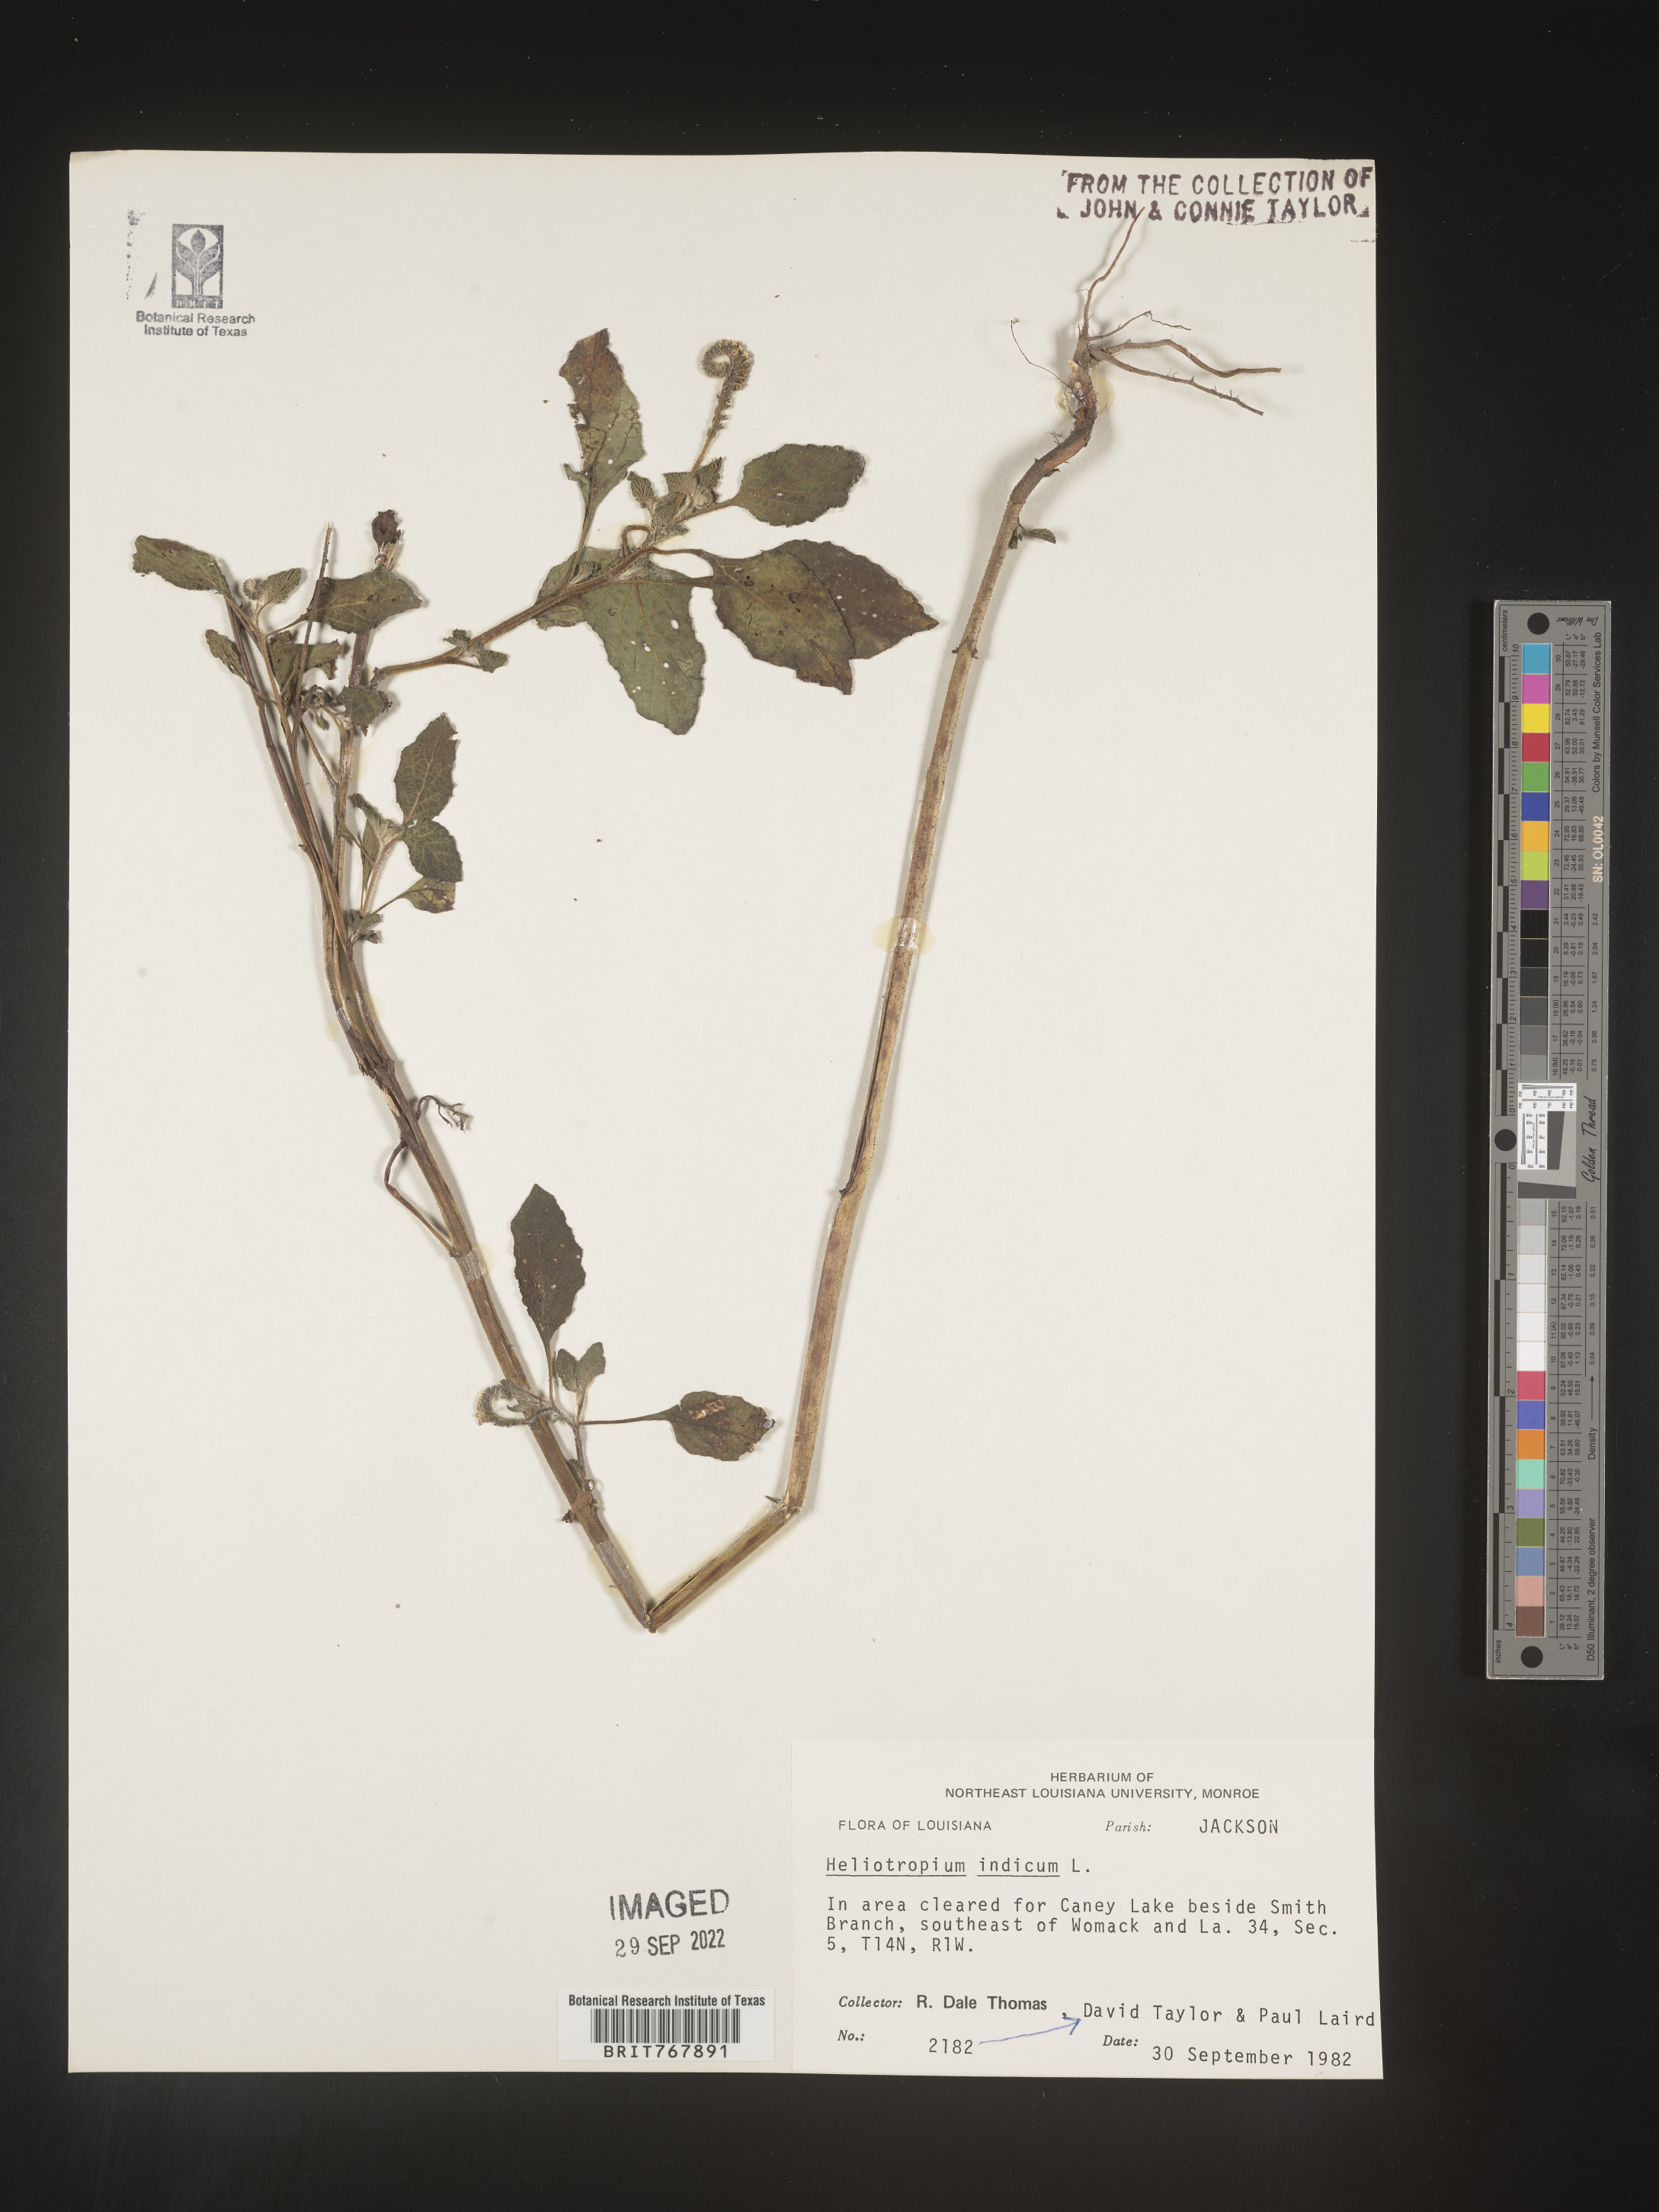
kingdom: Plantae
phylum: Tracheophyta
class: Magnoliopsida
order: Boraginales
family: Heliotropiaceae
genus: Heliotropium
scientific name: Heliotropium indicum
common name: Indian heliotrope
